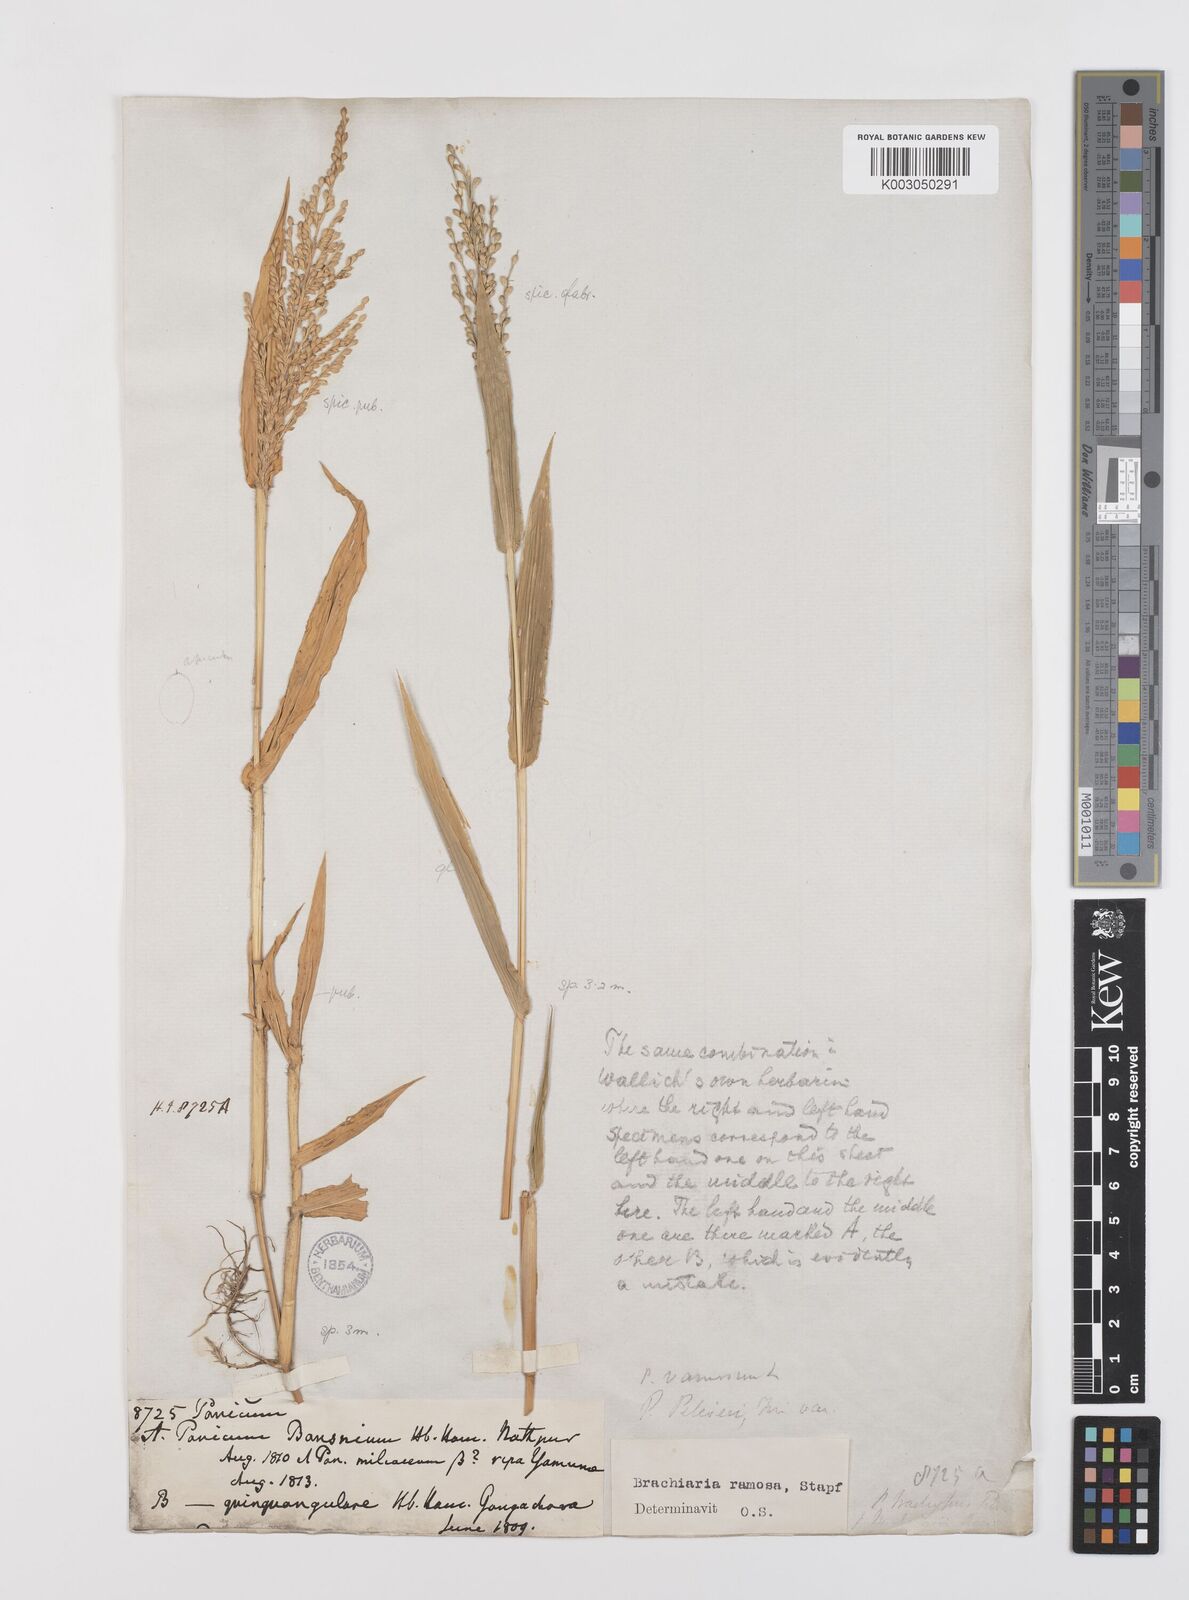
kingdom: Plantae
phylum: Tracheophyta
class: Liliopsida
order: Poales
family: Poaceae
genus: Urochloa
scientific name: Urochloa ramosa
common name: Browntop millet
